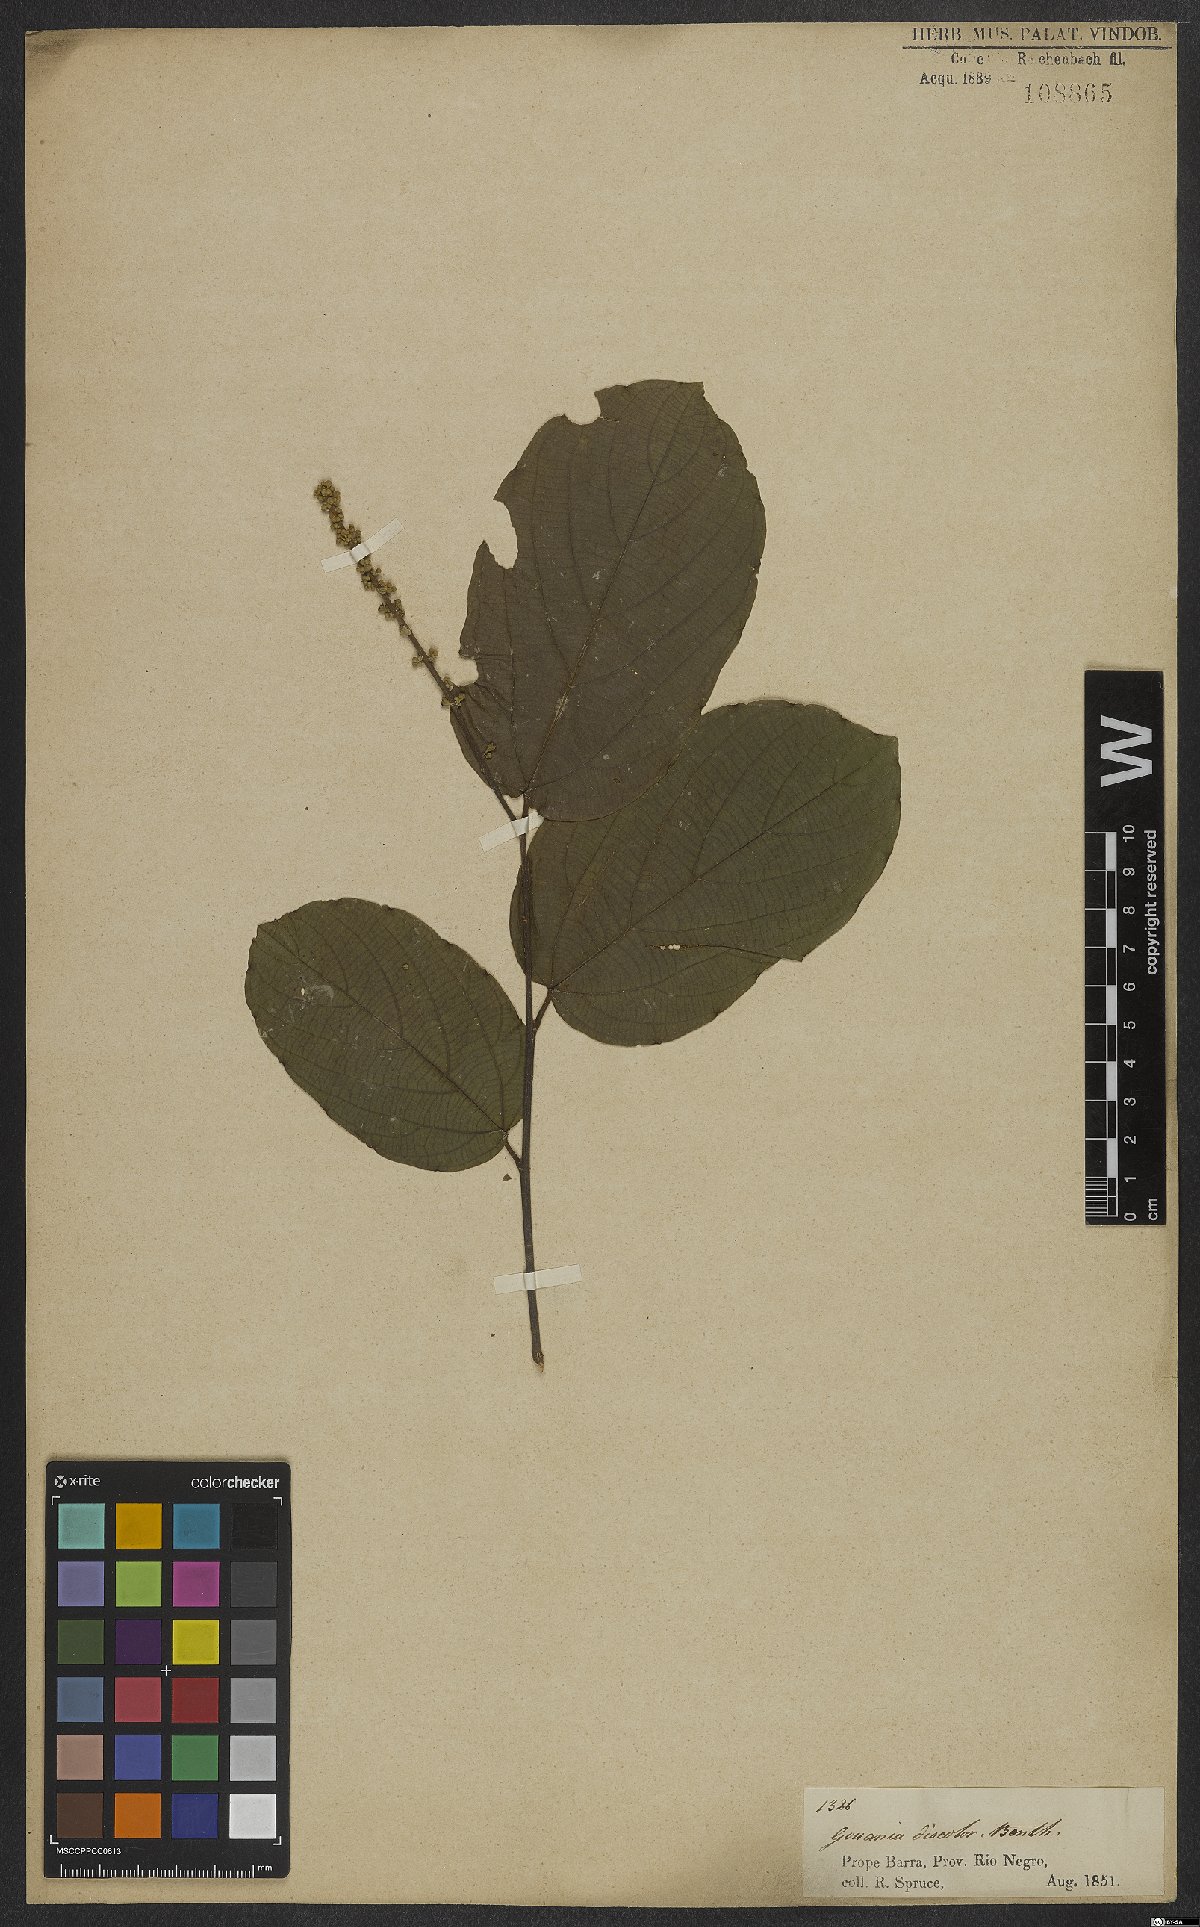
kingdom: Plantae
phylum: Tracheophyta
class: Magnoliopsida
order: Rosales
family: Rhamnaceae
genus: Gouania
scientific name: Gouania discolor
